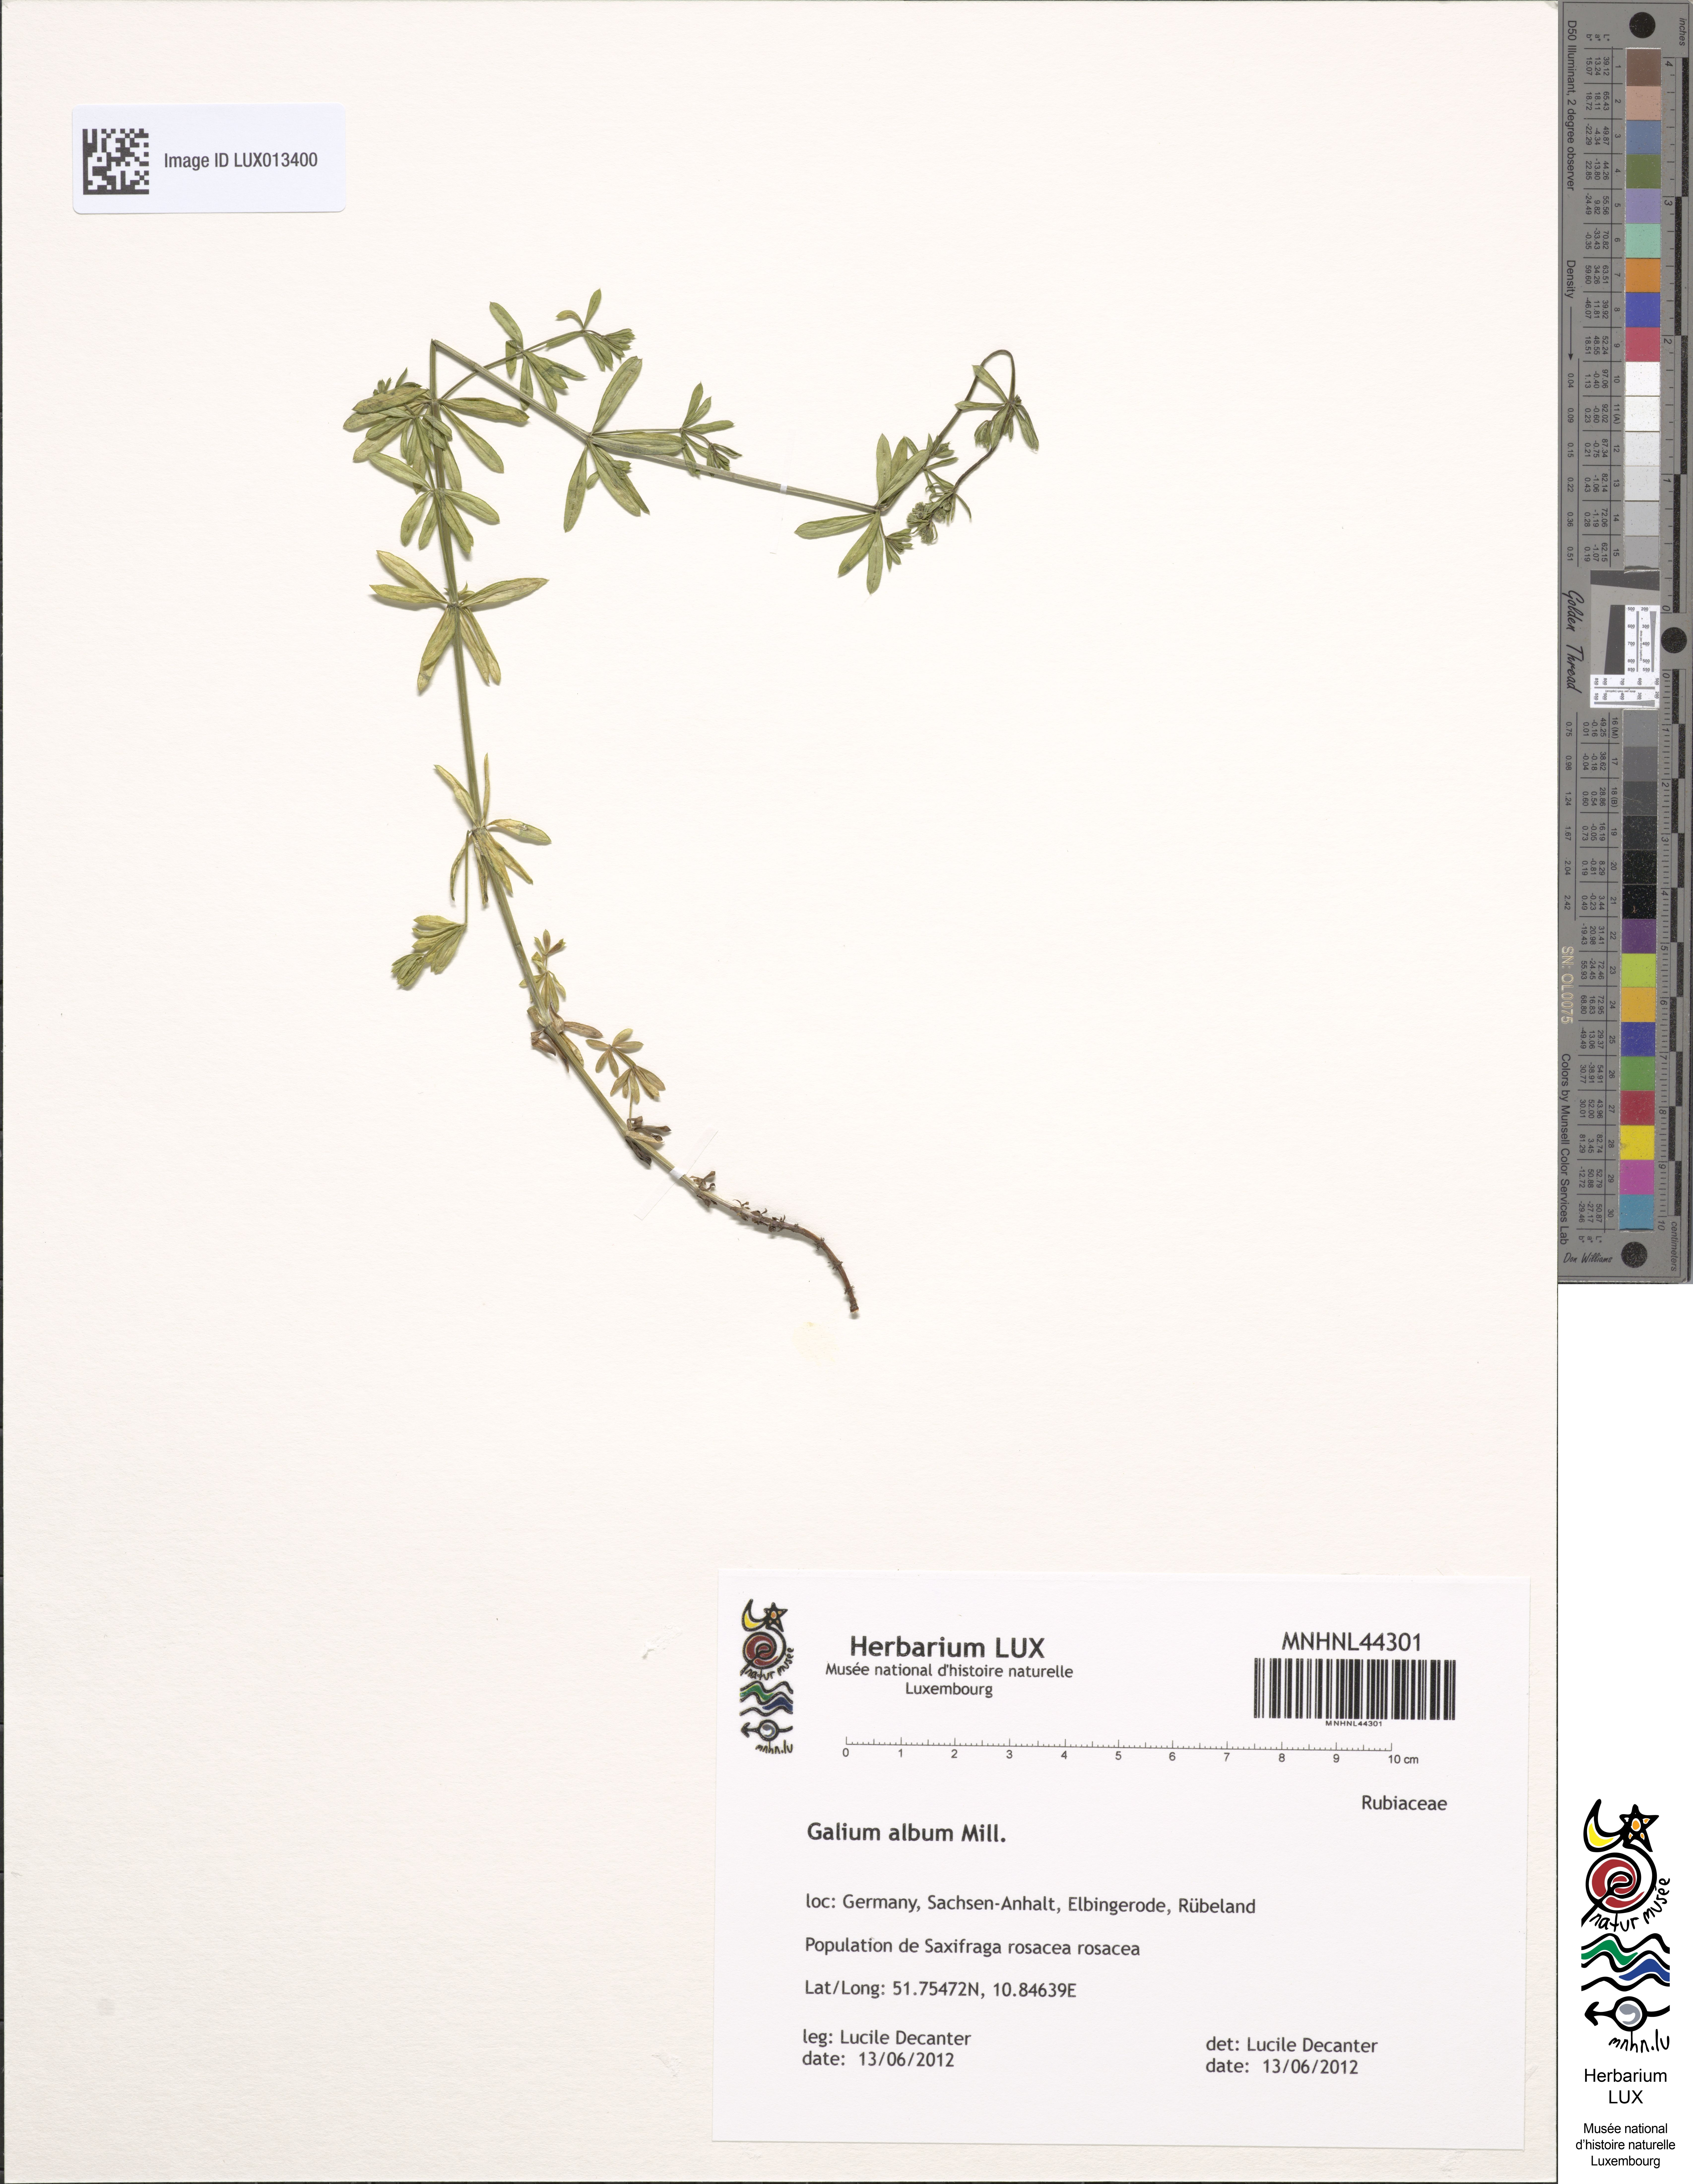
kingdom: Plantae
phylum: Tracheophyta
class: Magnoliopsida
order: Gentianales
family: Rubiaceae
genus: Galium
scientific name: Galium album
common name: White bedstraw
